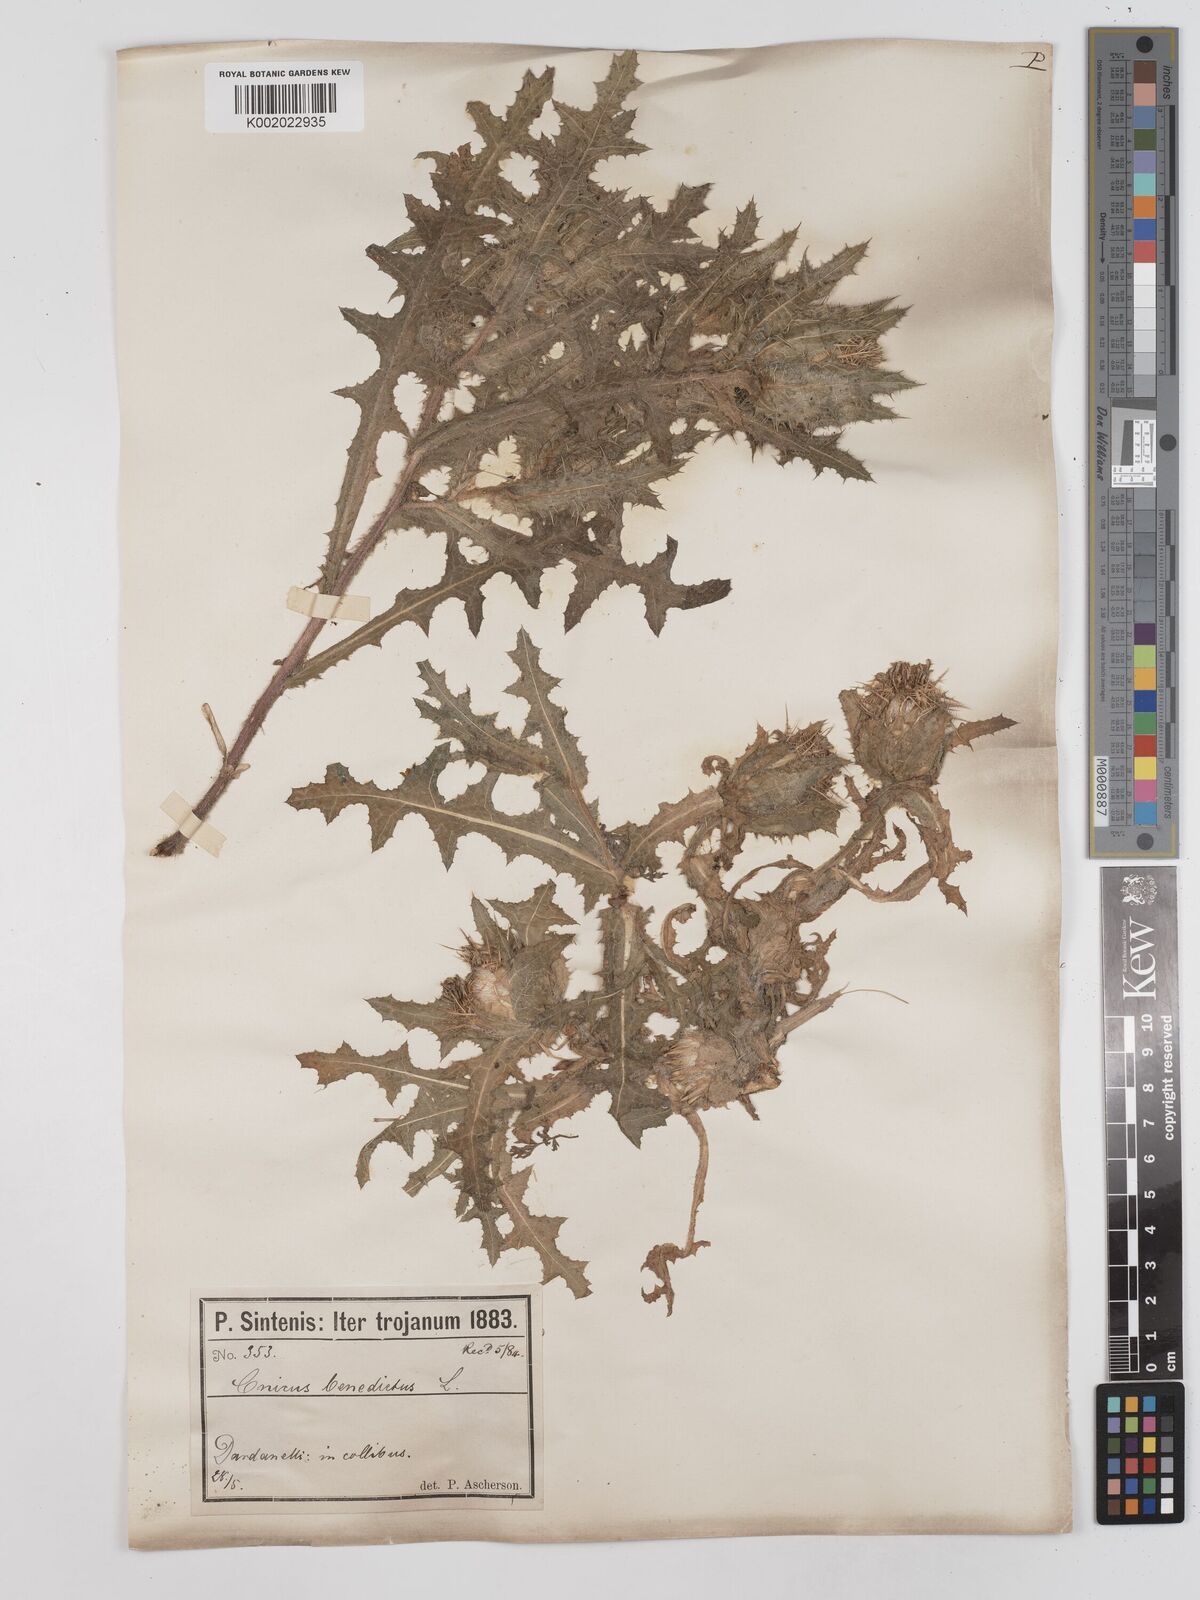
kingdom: Plantae
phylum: Tracheophyta
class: Magnoliopsida
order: Asterales
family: Asteraceae
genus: Centaurea
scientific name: Centaurea benedicta
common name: Blessed thistle
